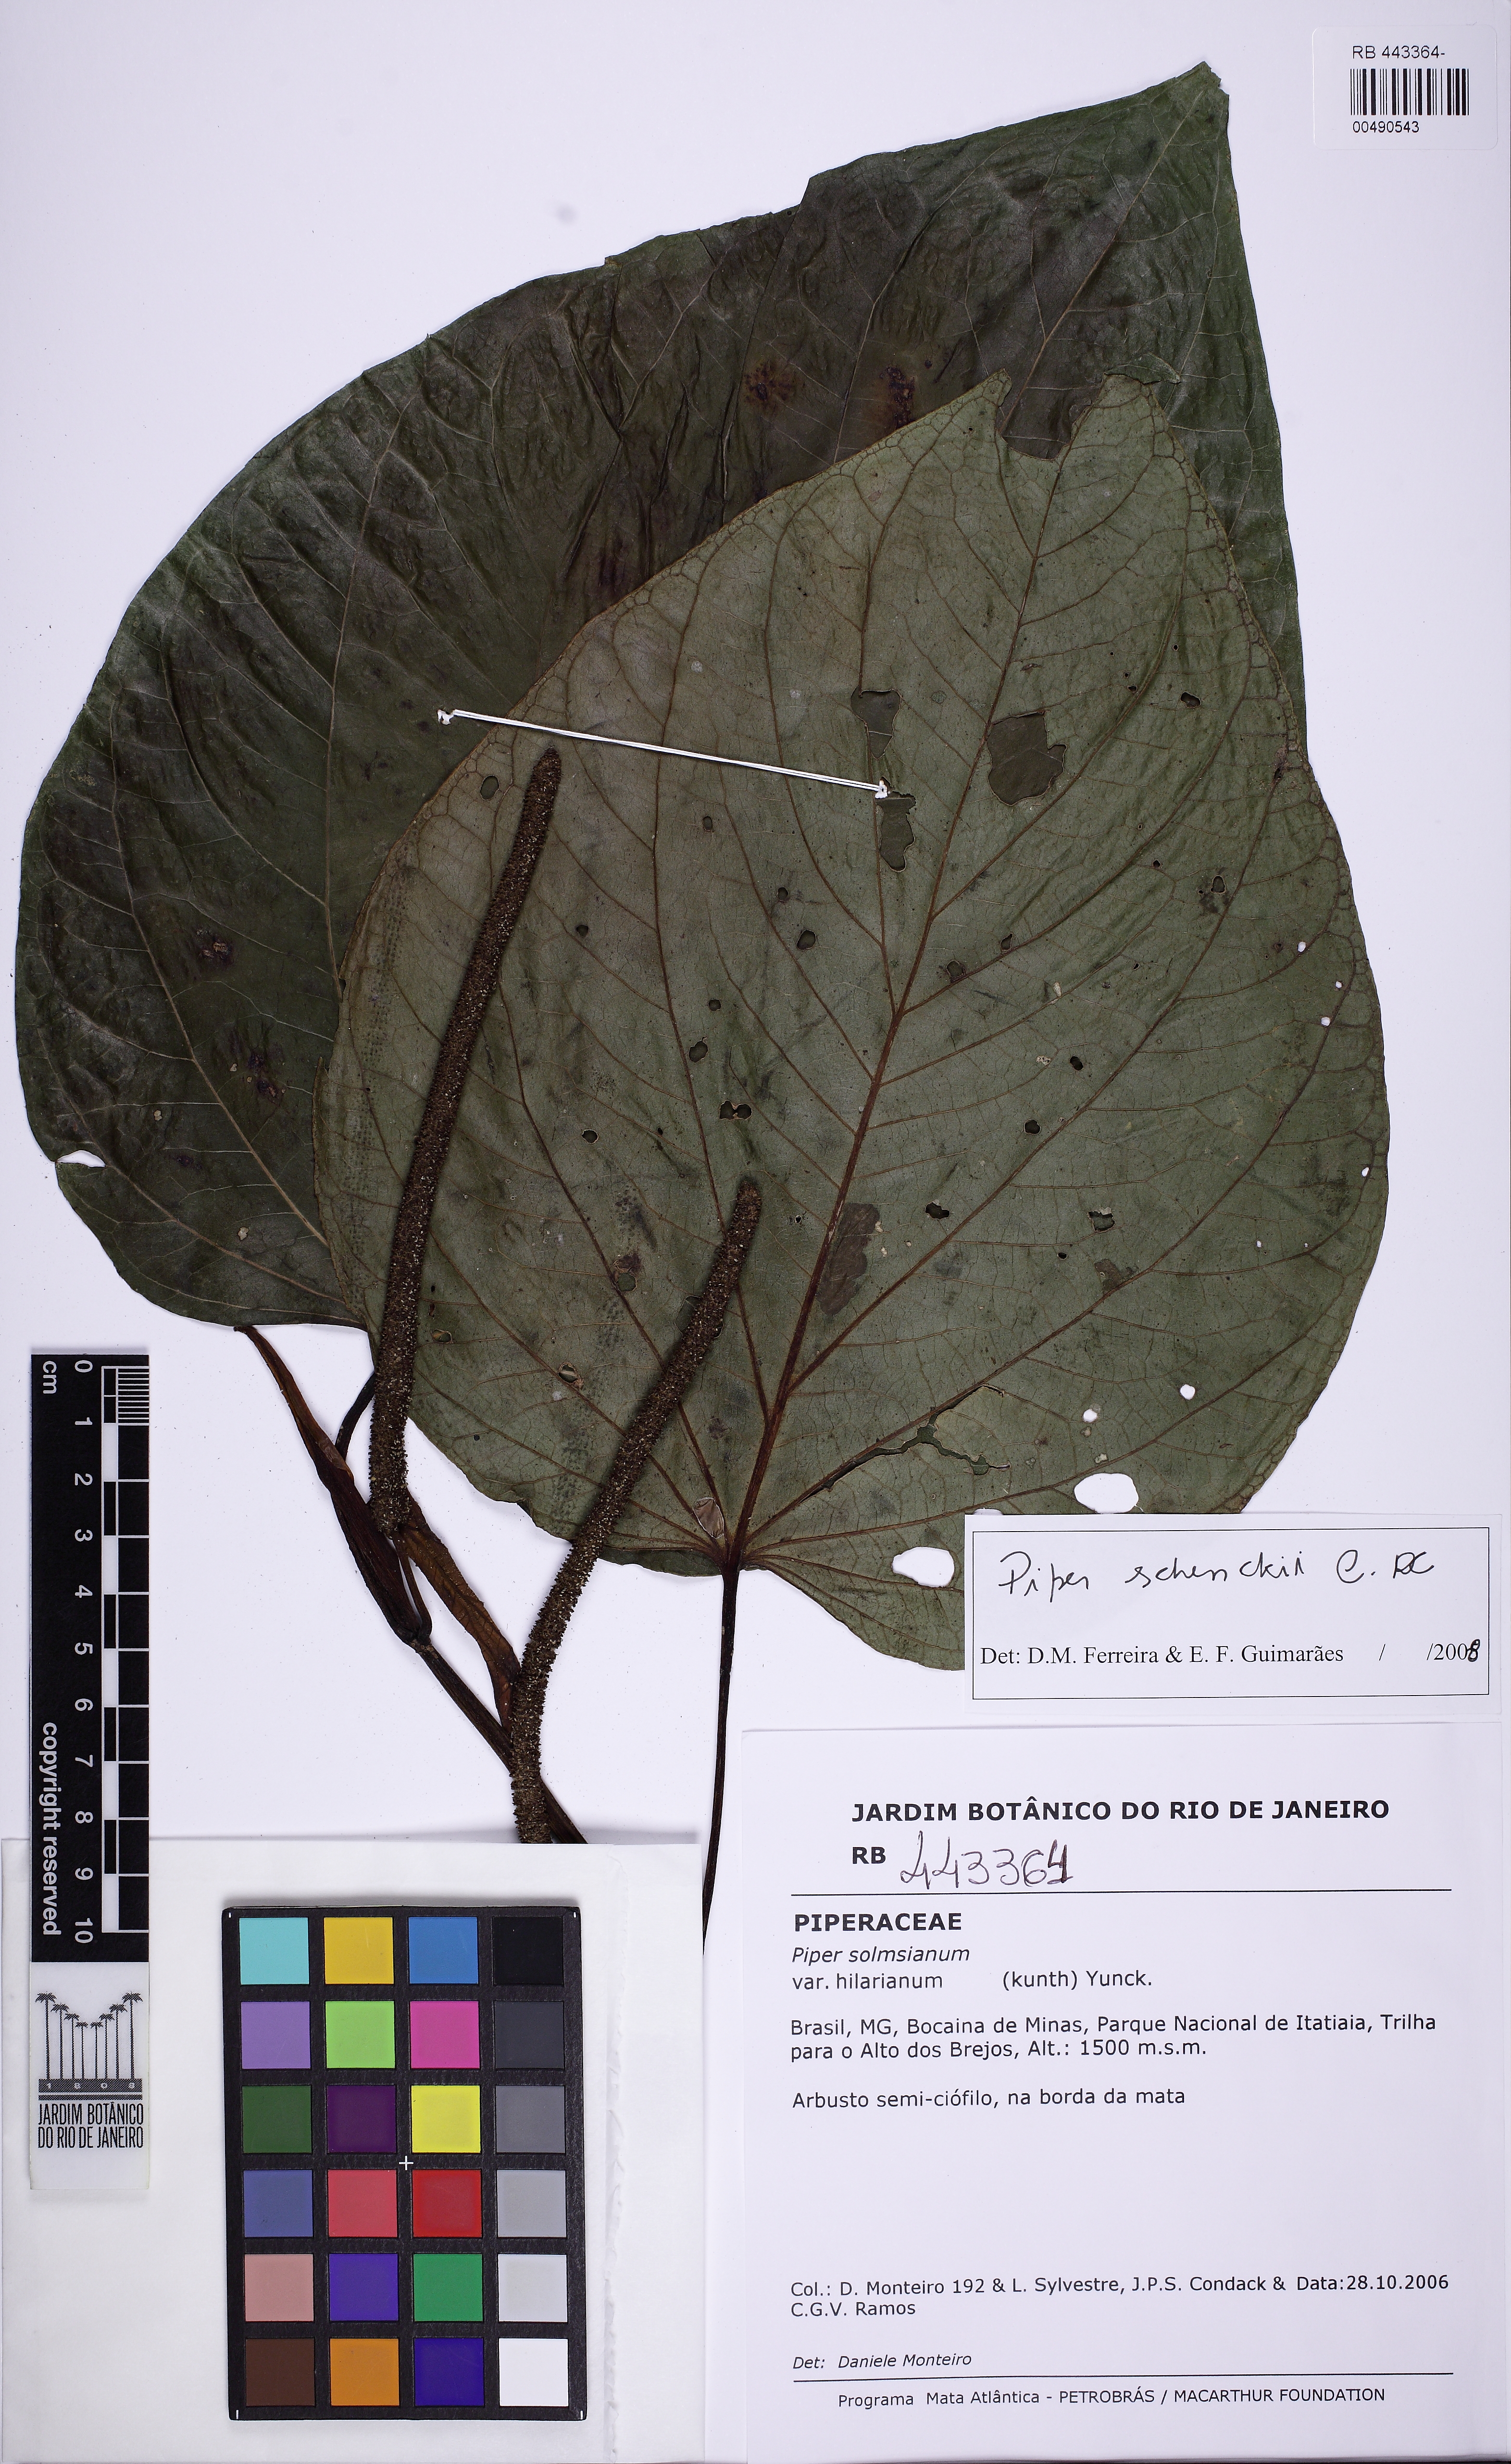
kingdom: Plantae
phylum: Tracheophyta
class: Magnoliopsida
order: Piperales
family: Piperaceae
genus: Piper
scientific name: Piper schenckii
